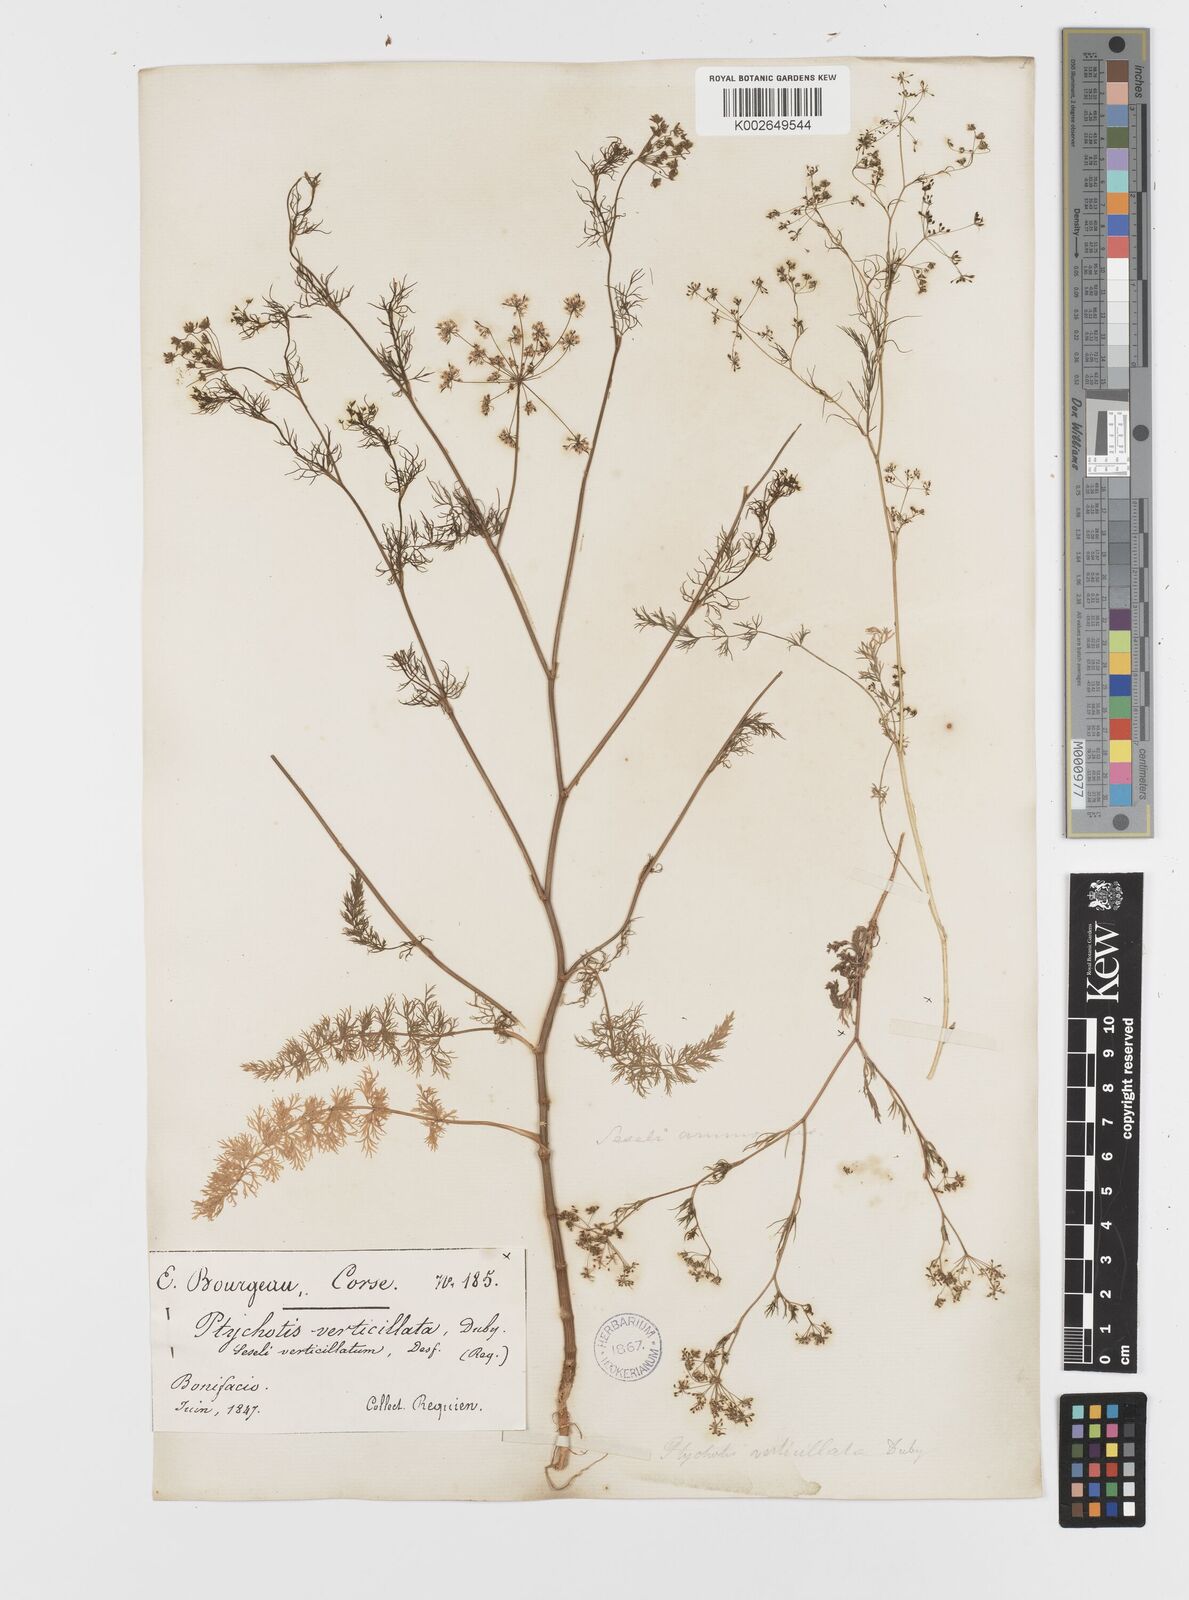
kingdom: Plantae
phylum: Tracheophyta
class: Magnoliopsida
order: Apiales
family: Apiaceae
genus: Trocdaris
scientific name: Trocdaris verticillatum
